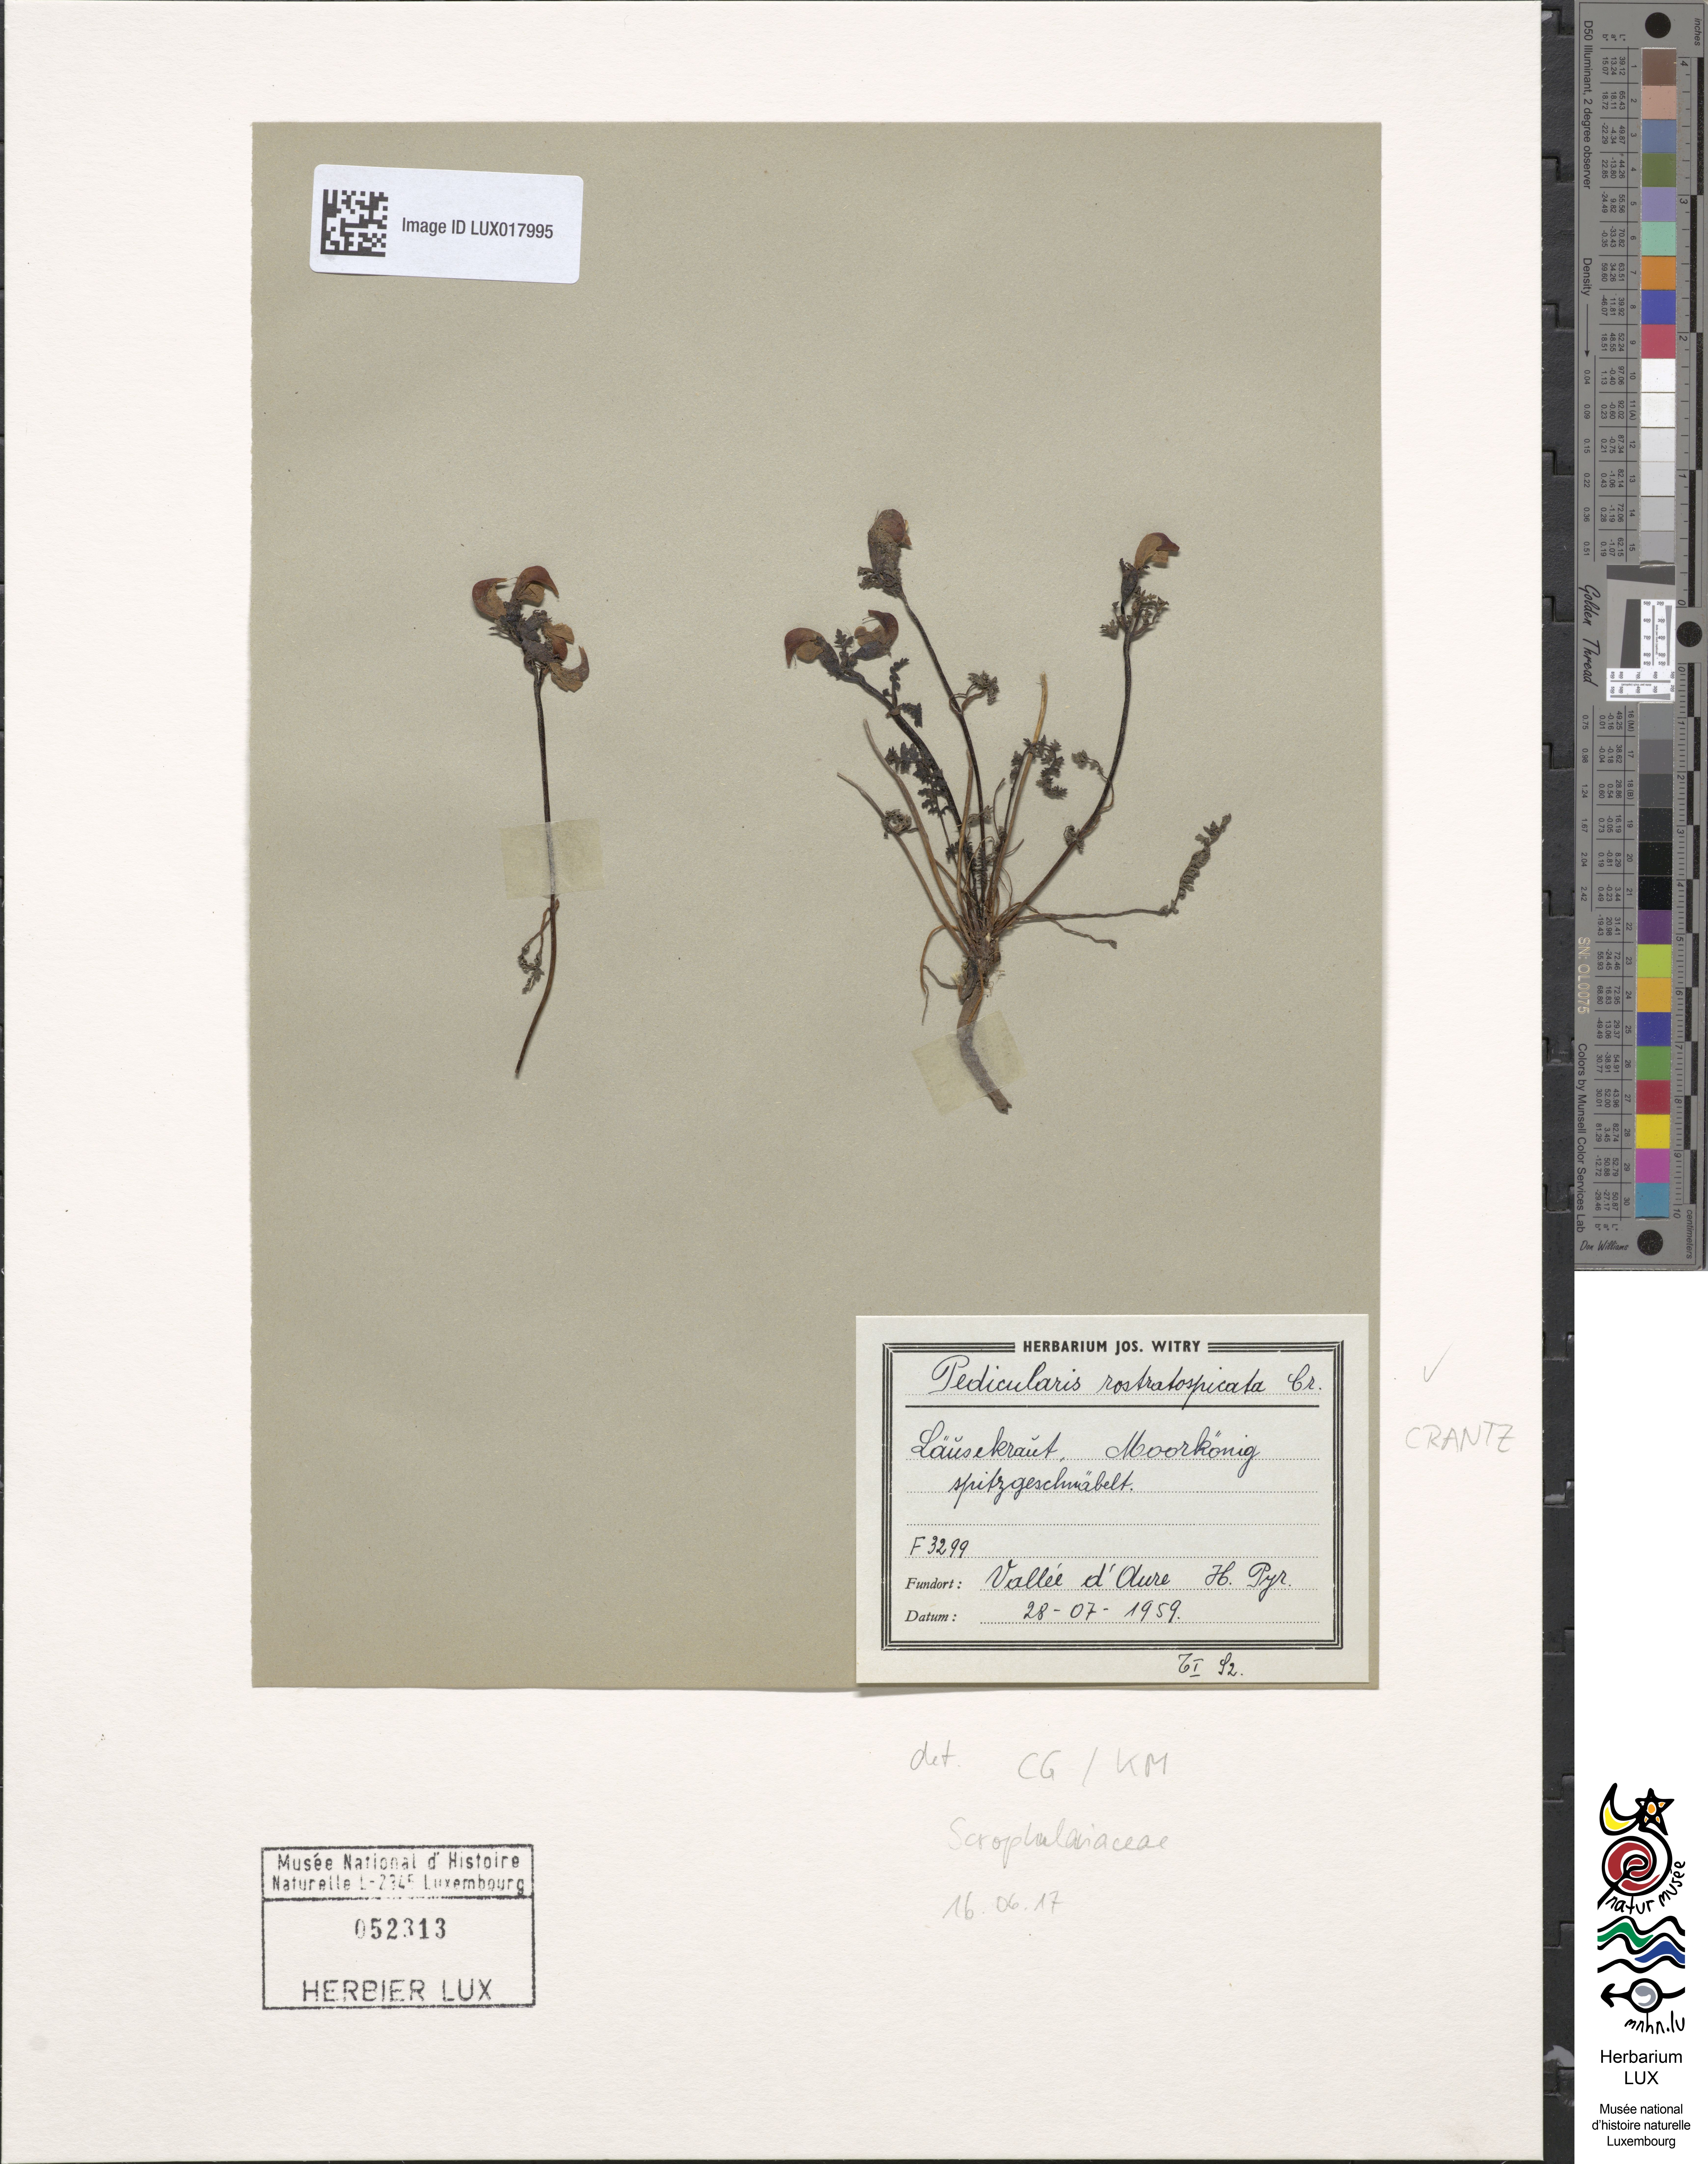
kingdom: Plantae
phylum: Tracheophyta
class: Magnoliopsida
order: Lamiales
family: Orobanchaceae
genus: Pedicularis
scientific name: Pedicularis rostratocapitata
